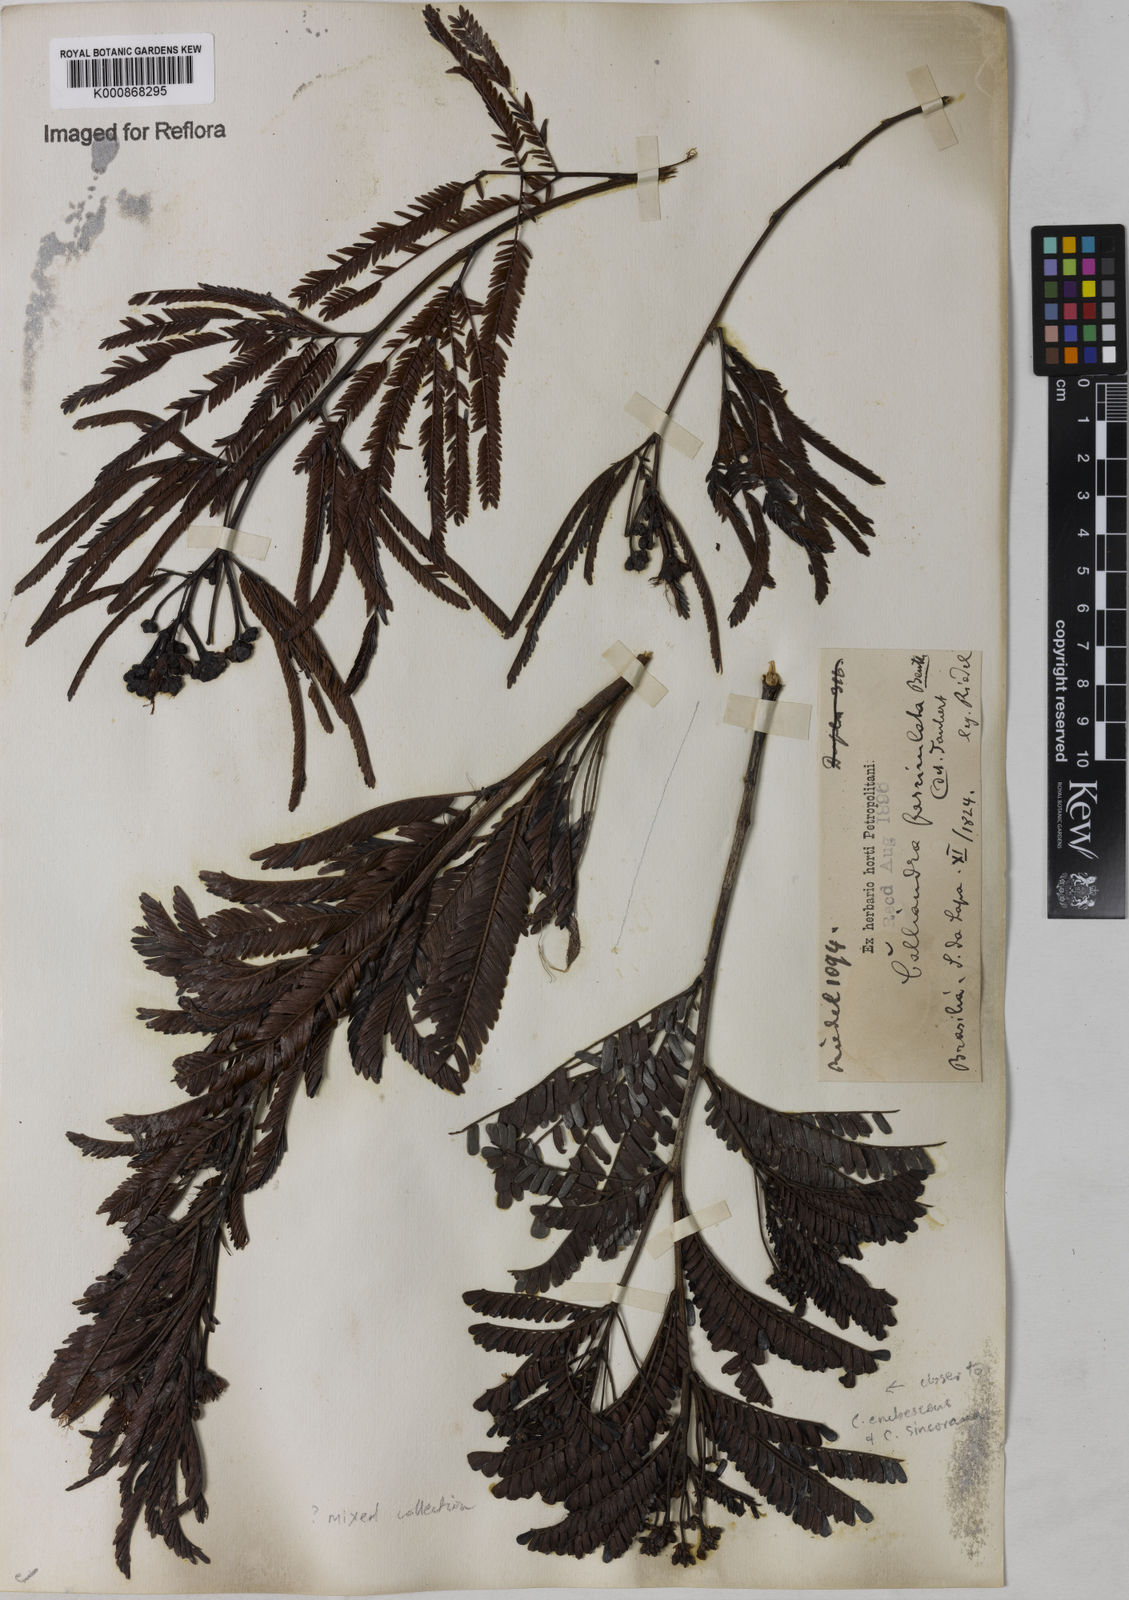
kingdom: Plantae
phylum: Tracheophyta
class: Magnoliopsida
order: Fabales
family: Fabaceae
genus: Calliandra
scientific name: Calliandra fasciculata
